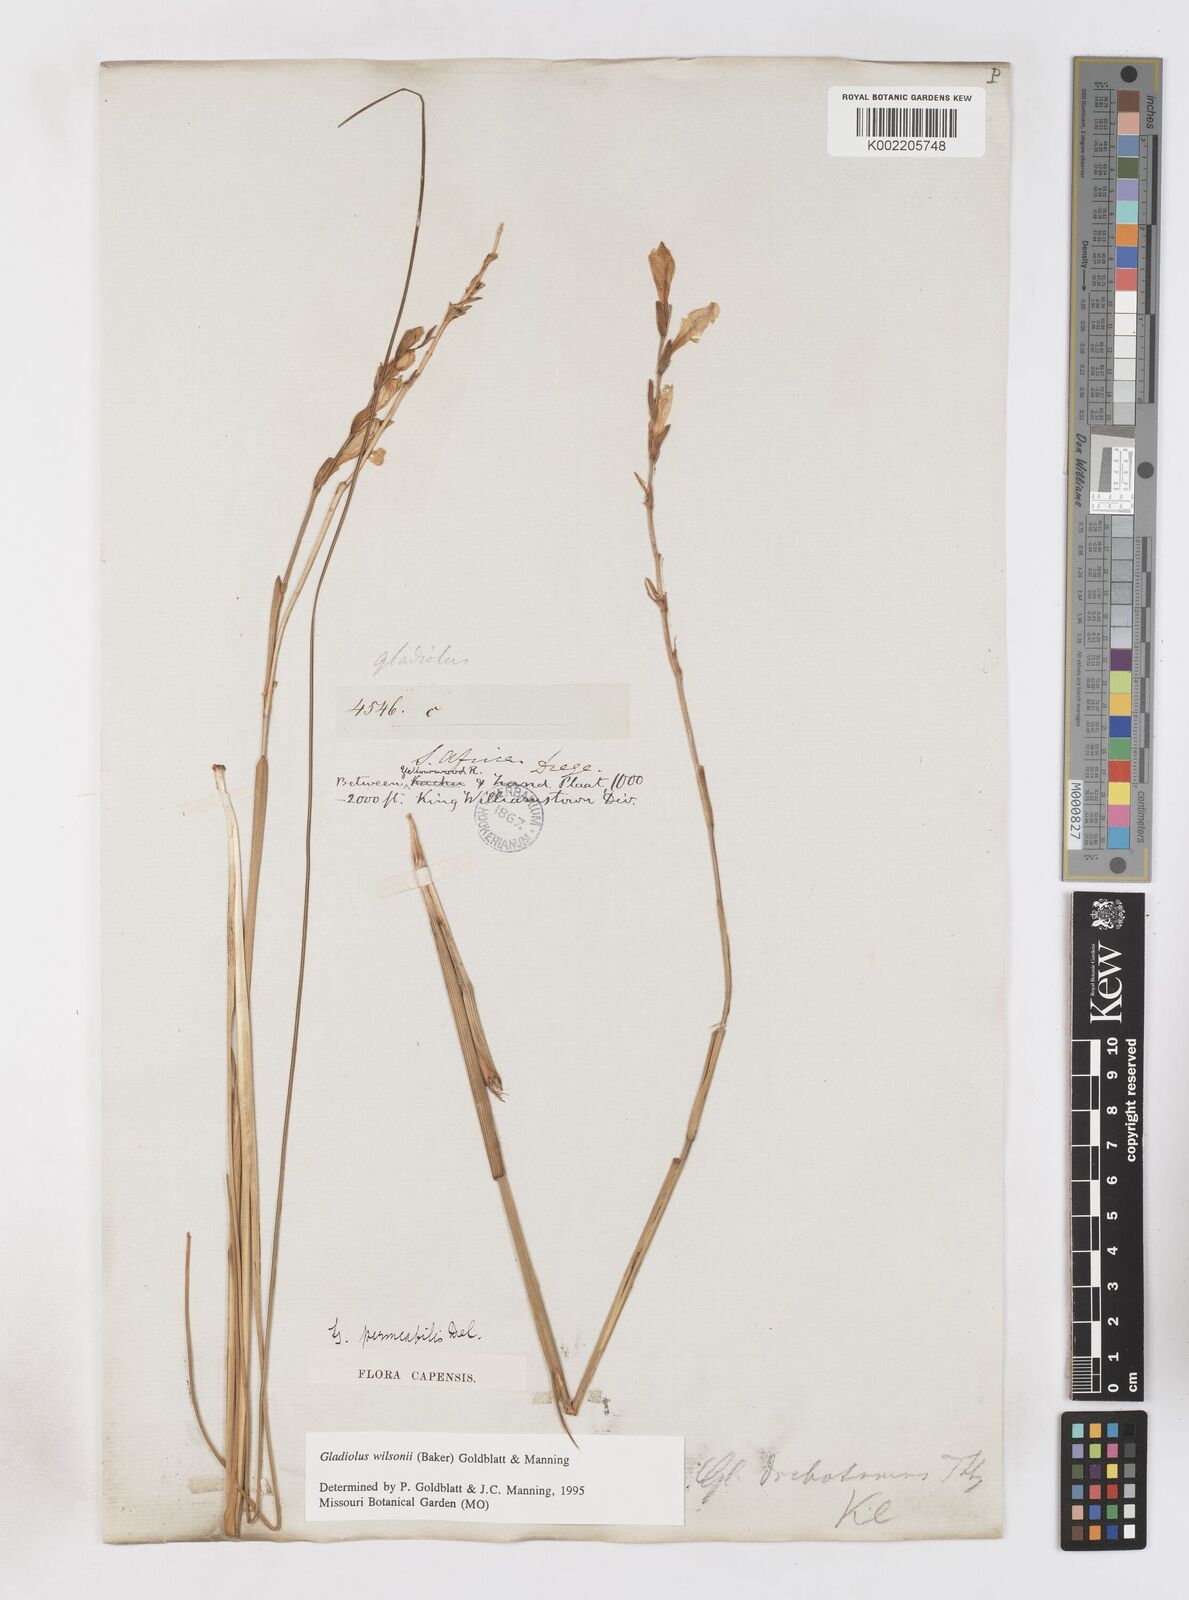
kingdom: Plantae
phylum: Tracheophyta
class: Liliopsida
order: Asparagales
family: Iridaceae
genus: Gladiolus
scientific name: Gladiolus wilsonii
